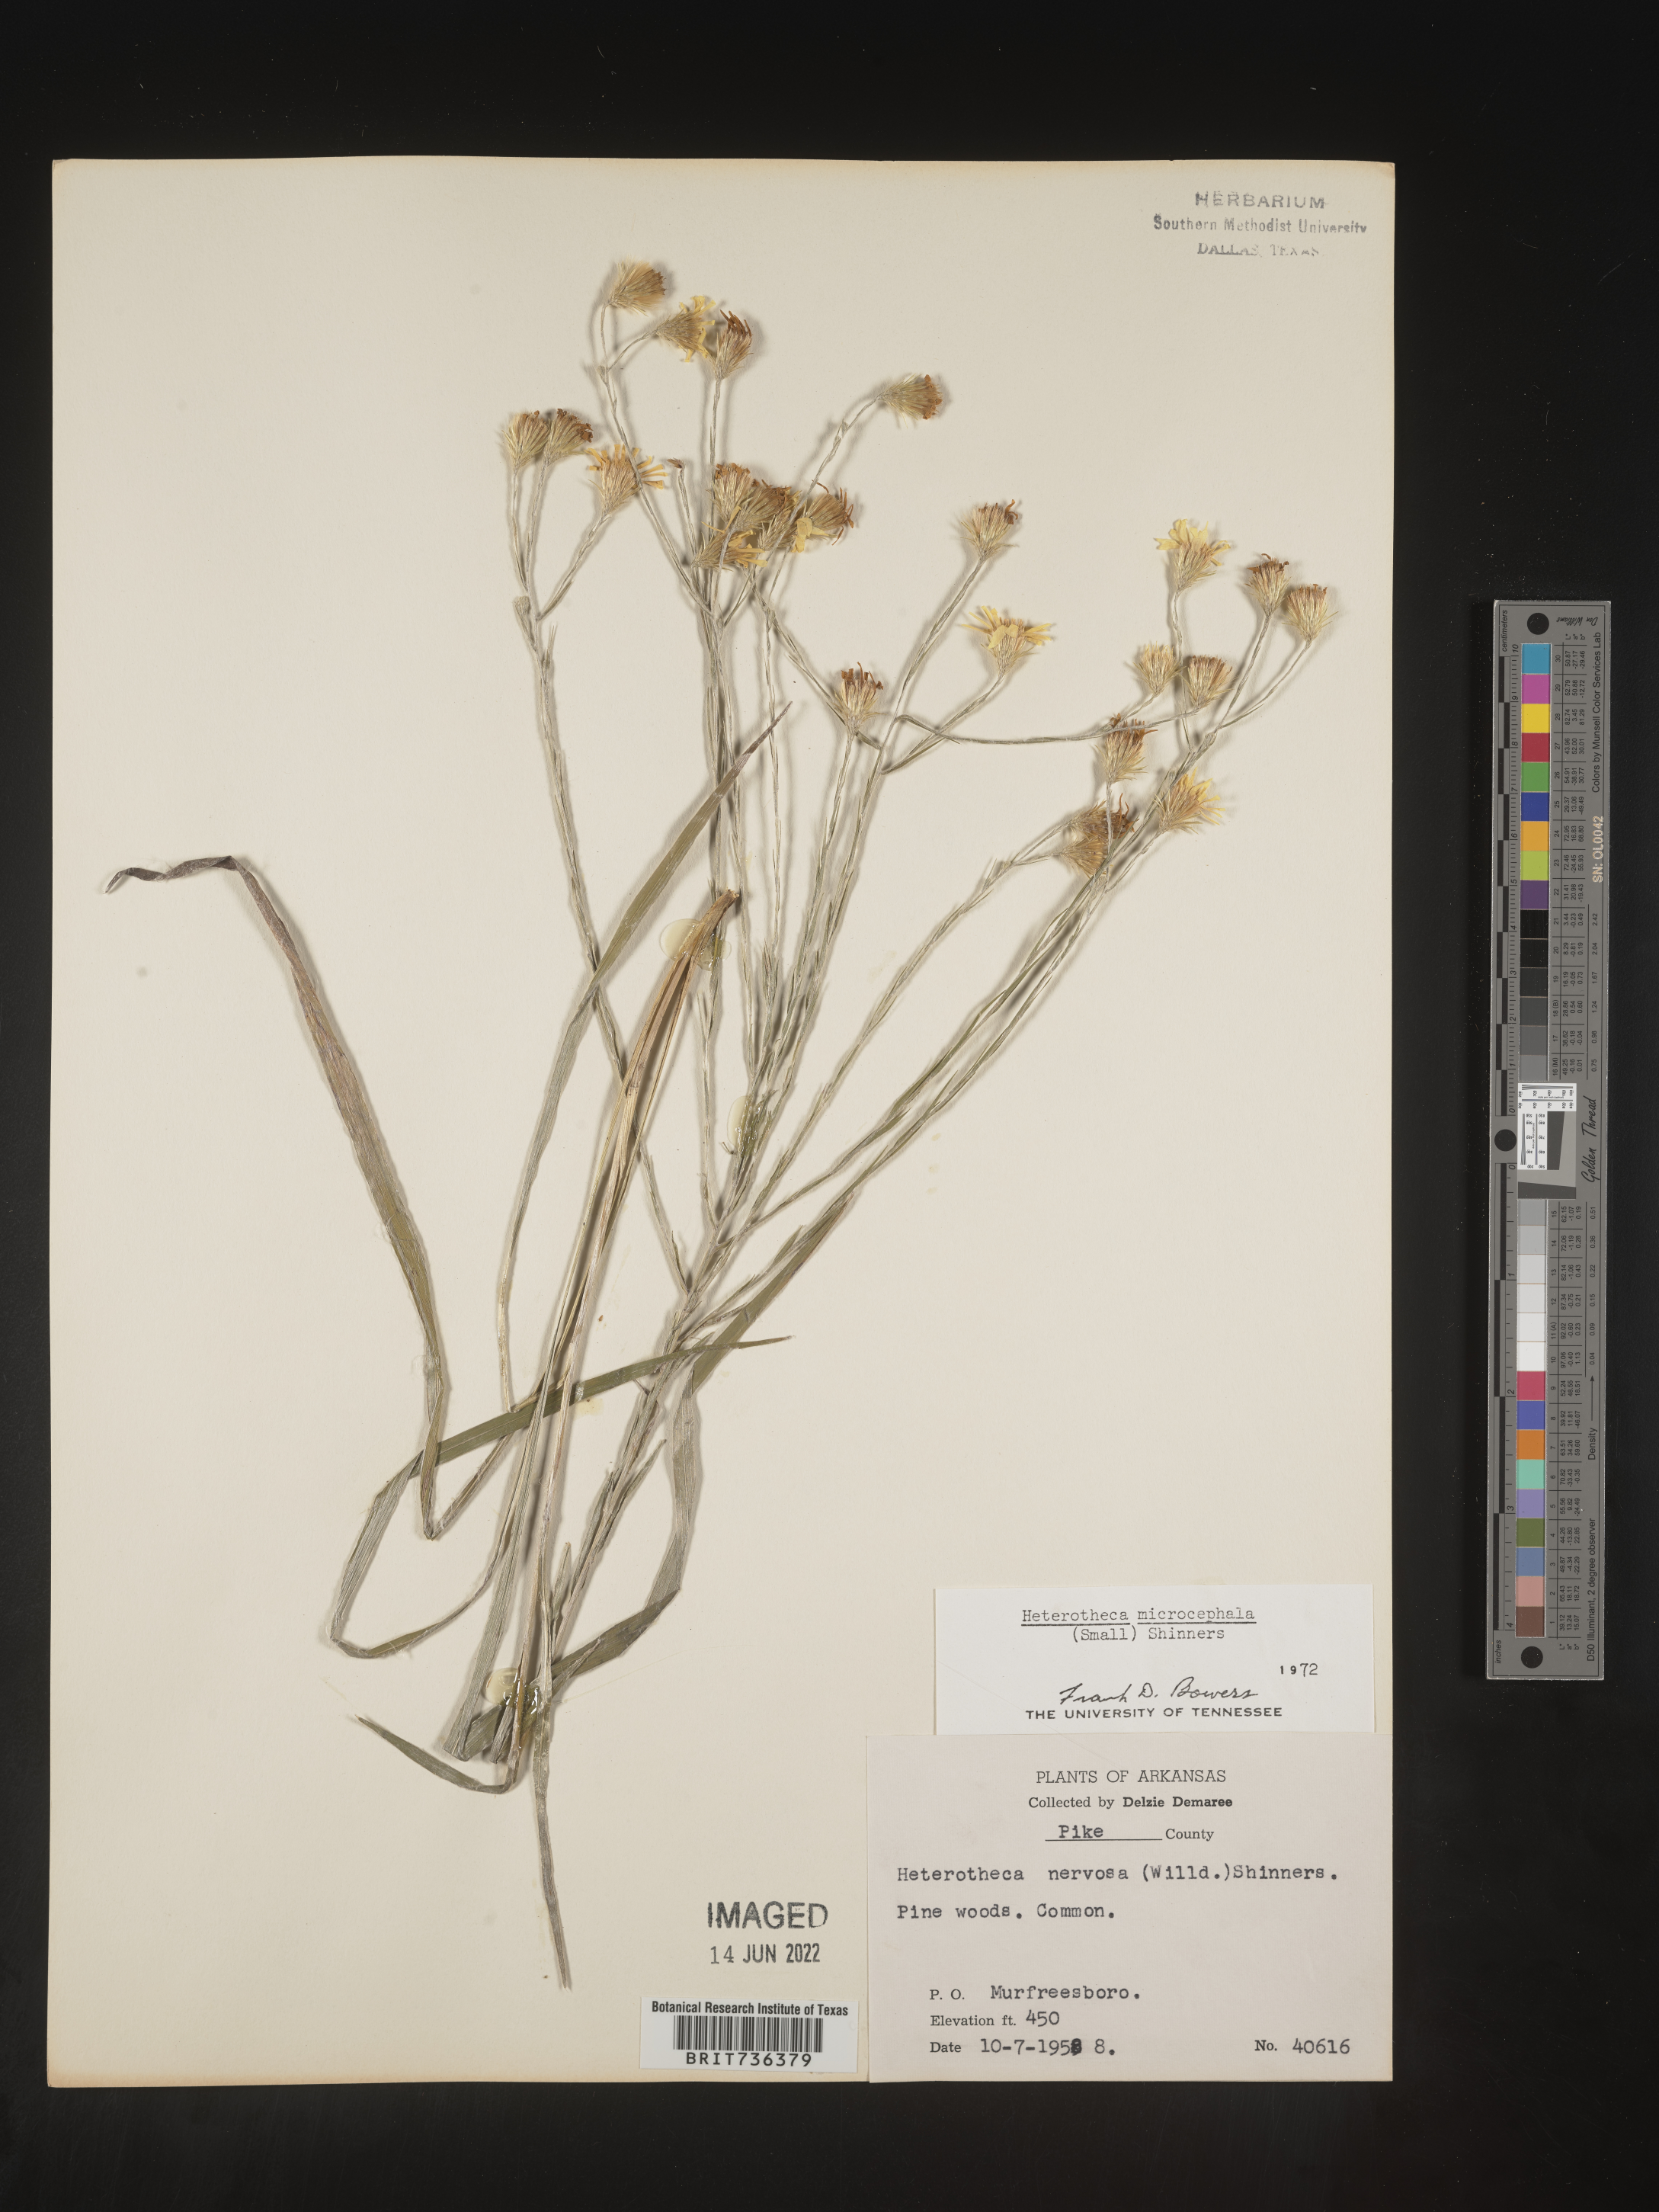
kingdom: Plantae
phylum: Tracheophyta
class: Magnoliopsida
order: Asterales
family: Asteraceae
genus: Pityopsis
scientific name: Pityopsis tenuifolia
